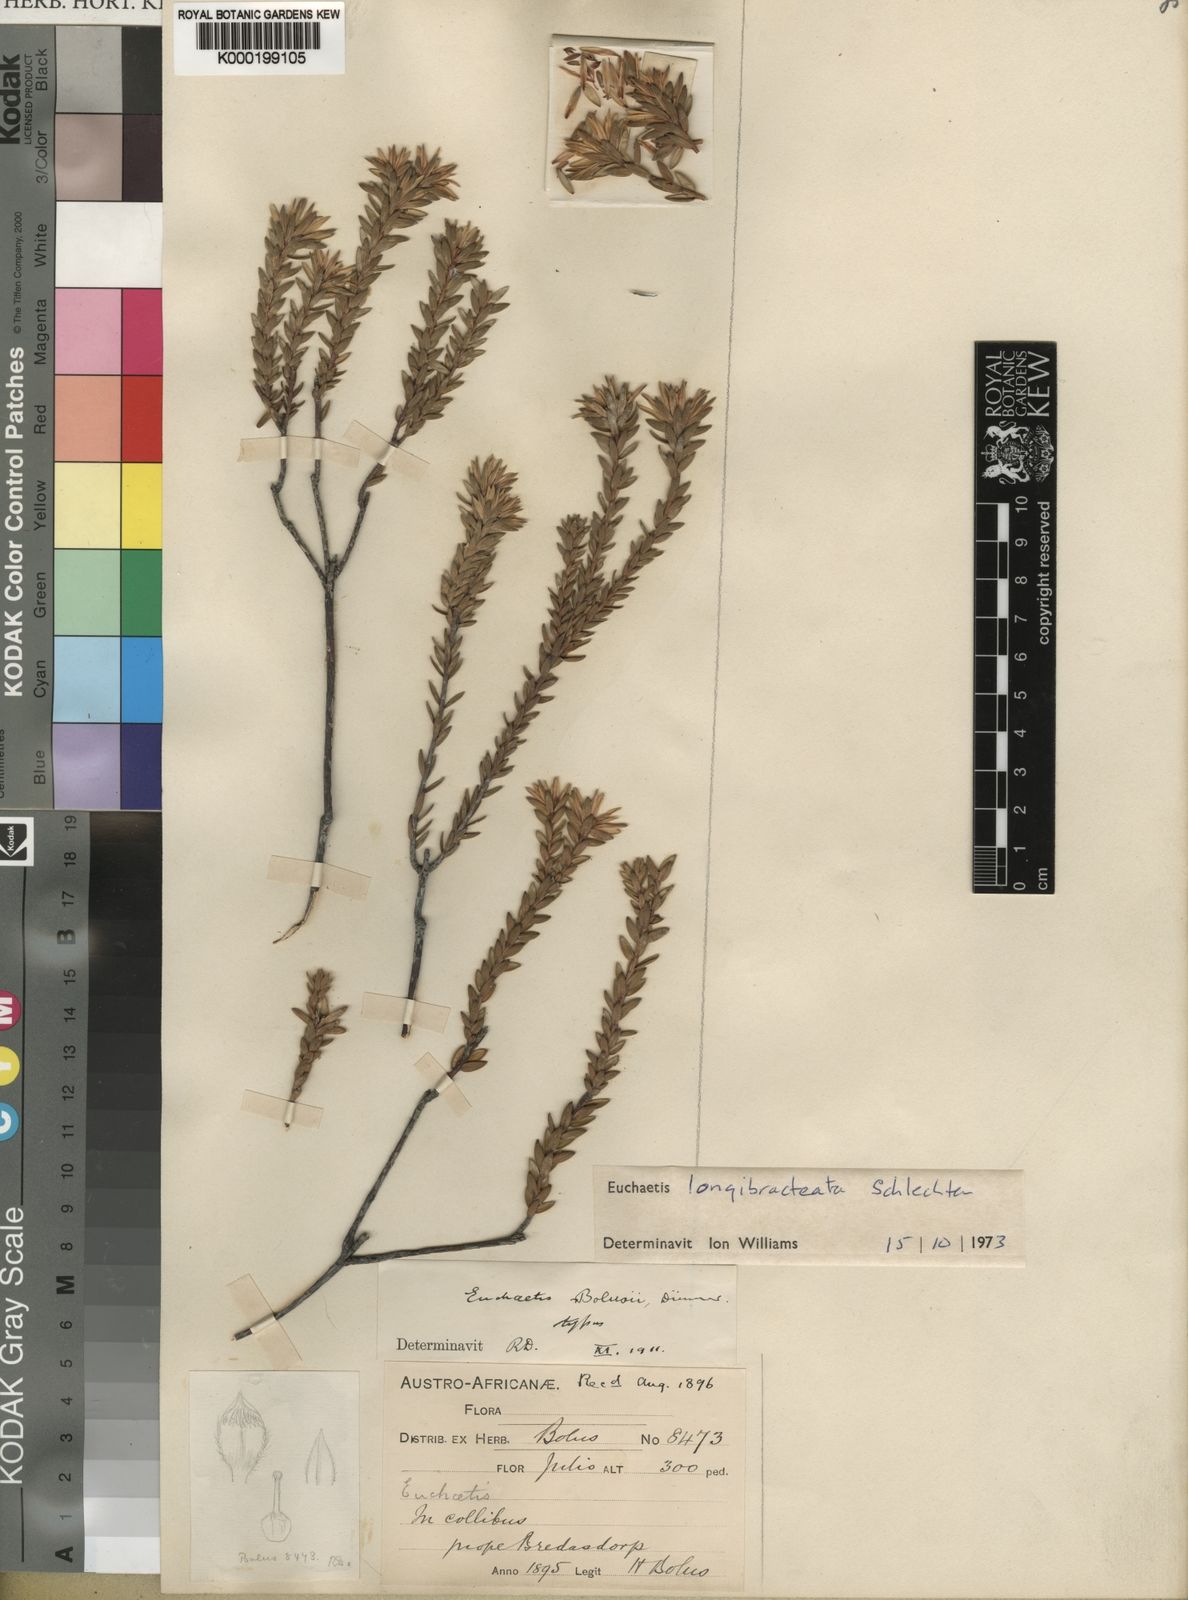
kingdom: Plantae
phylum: Tracheophyta
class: Magnoliopsida
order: Sapindales
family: Rutaceae
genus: Euchaetis
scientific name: Euchaetis longibracteata
